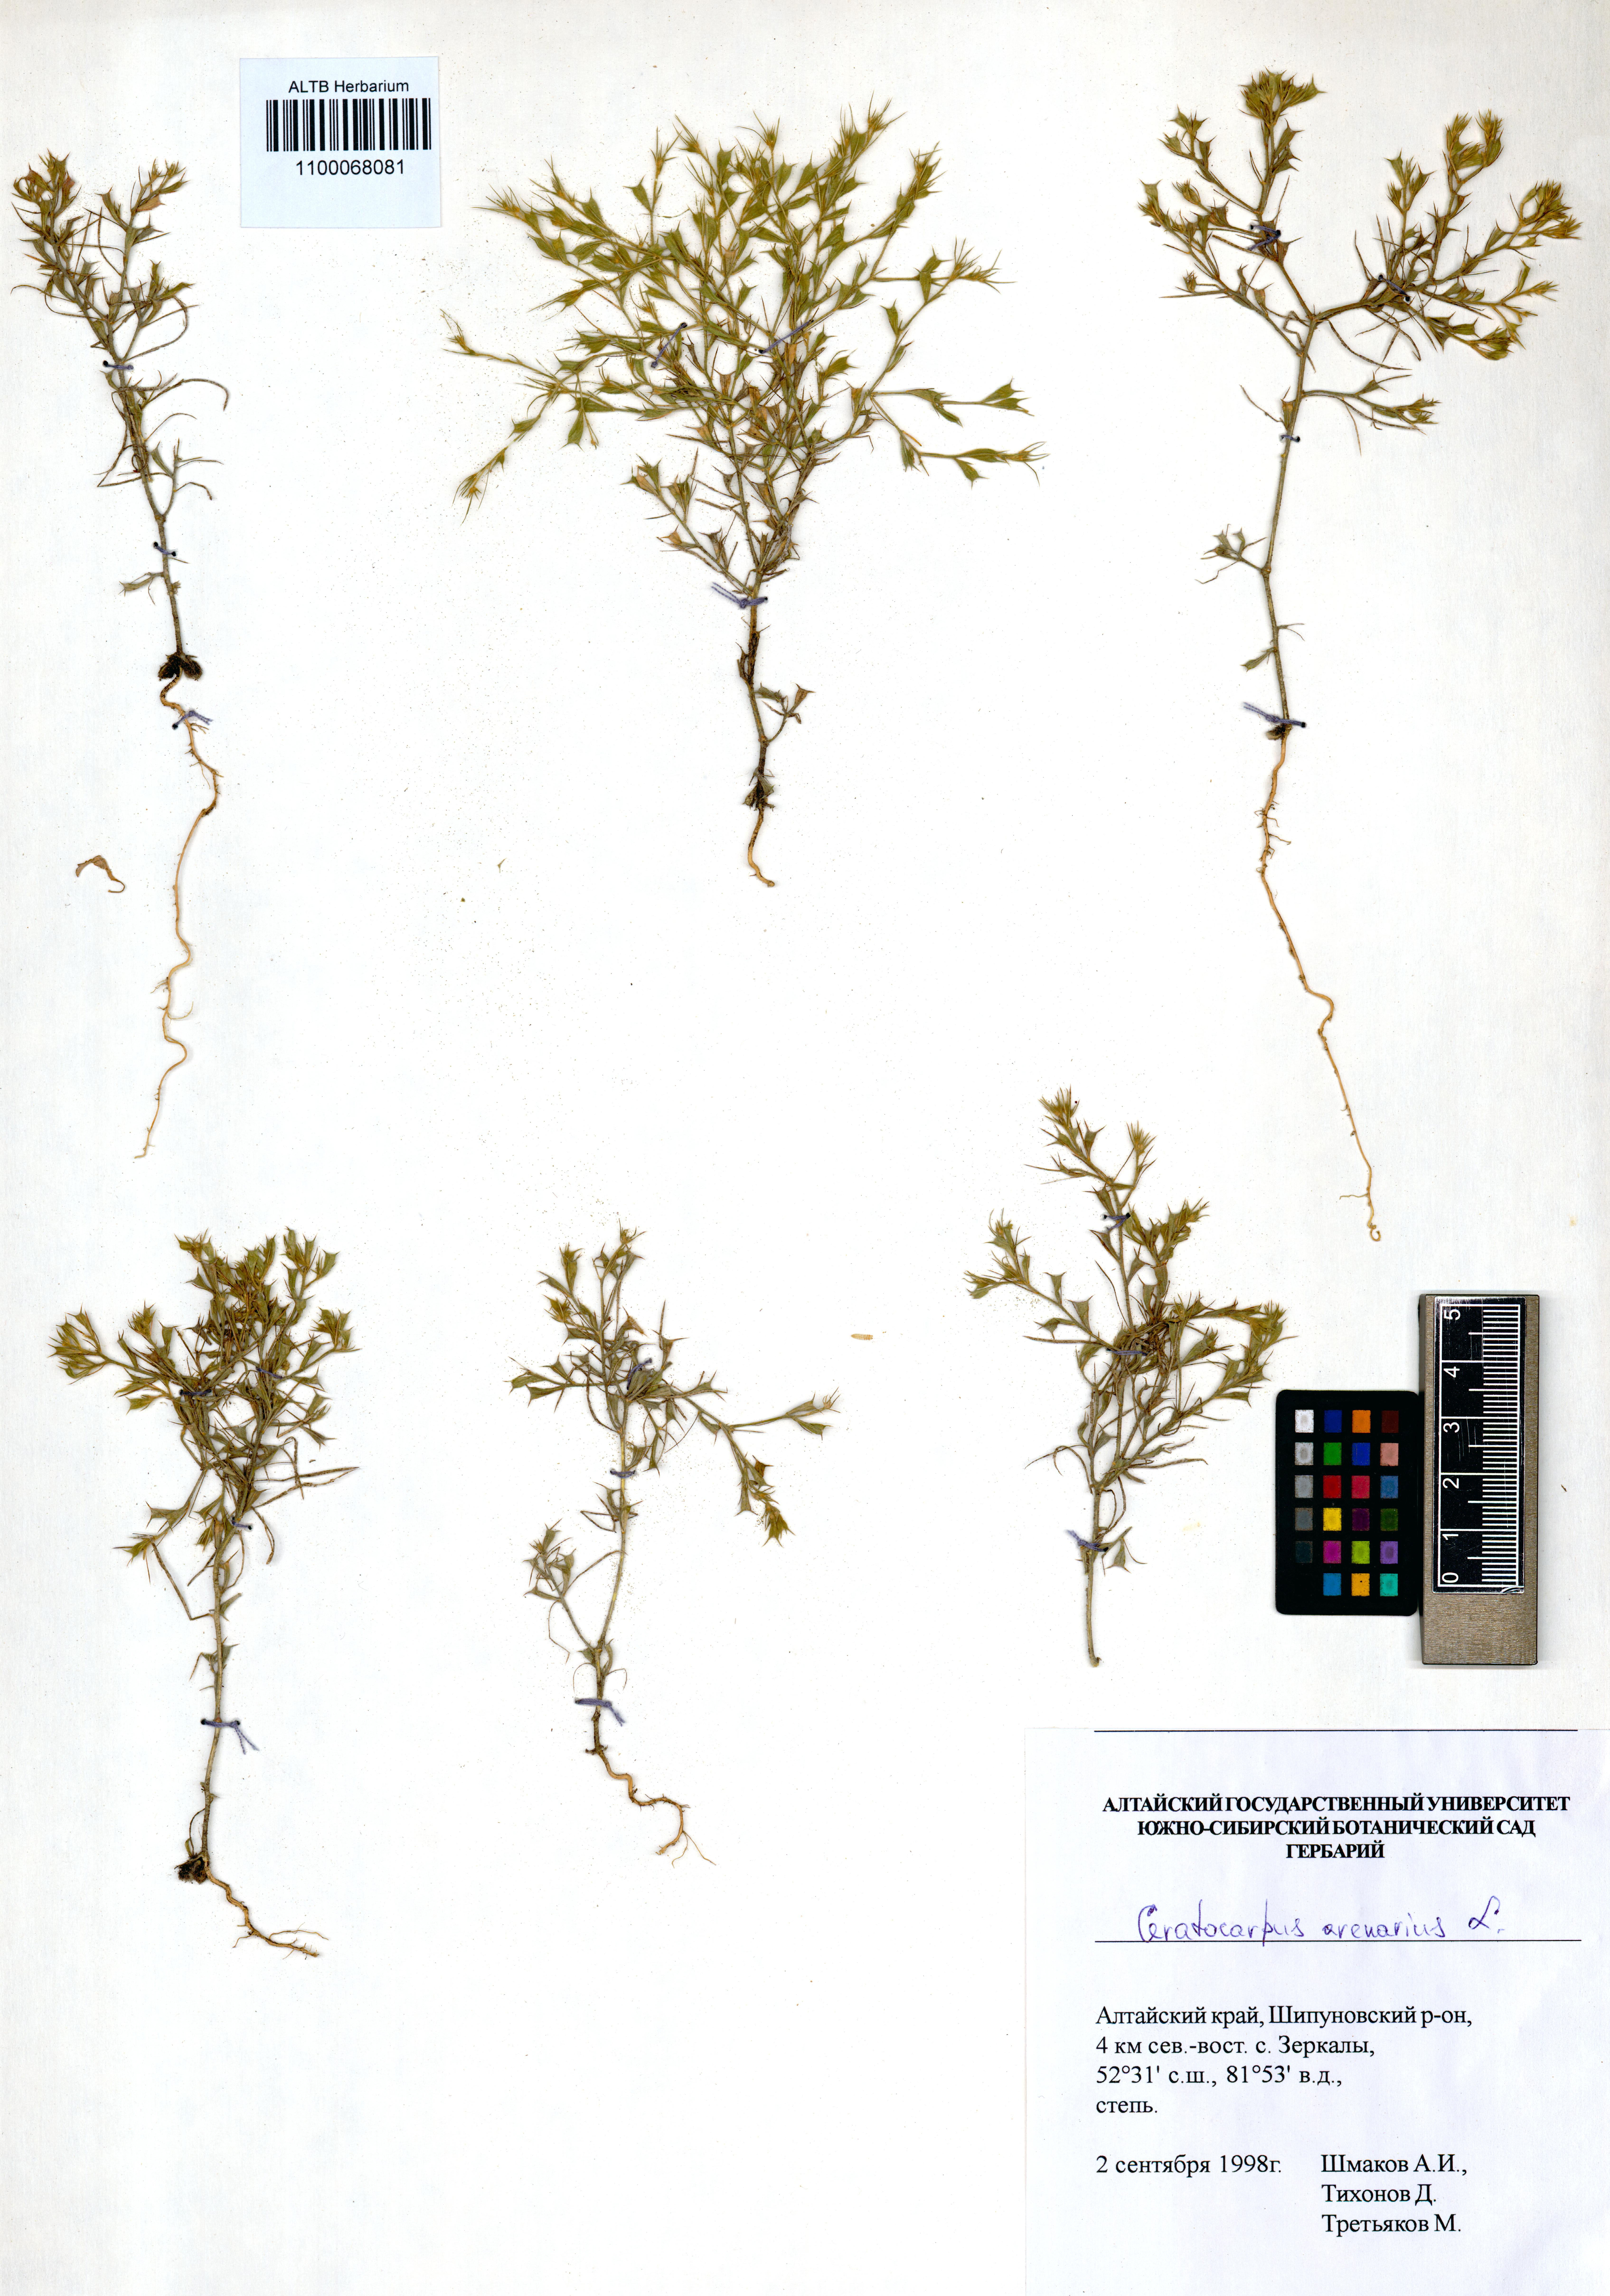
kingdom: Plantae
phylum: Tracheophyta
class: Magnoliopsida
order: Caryophyllales
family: Amaranthaceae
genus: Ceratocarpus
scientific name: Ceratocarpus arenarius
